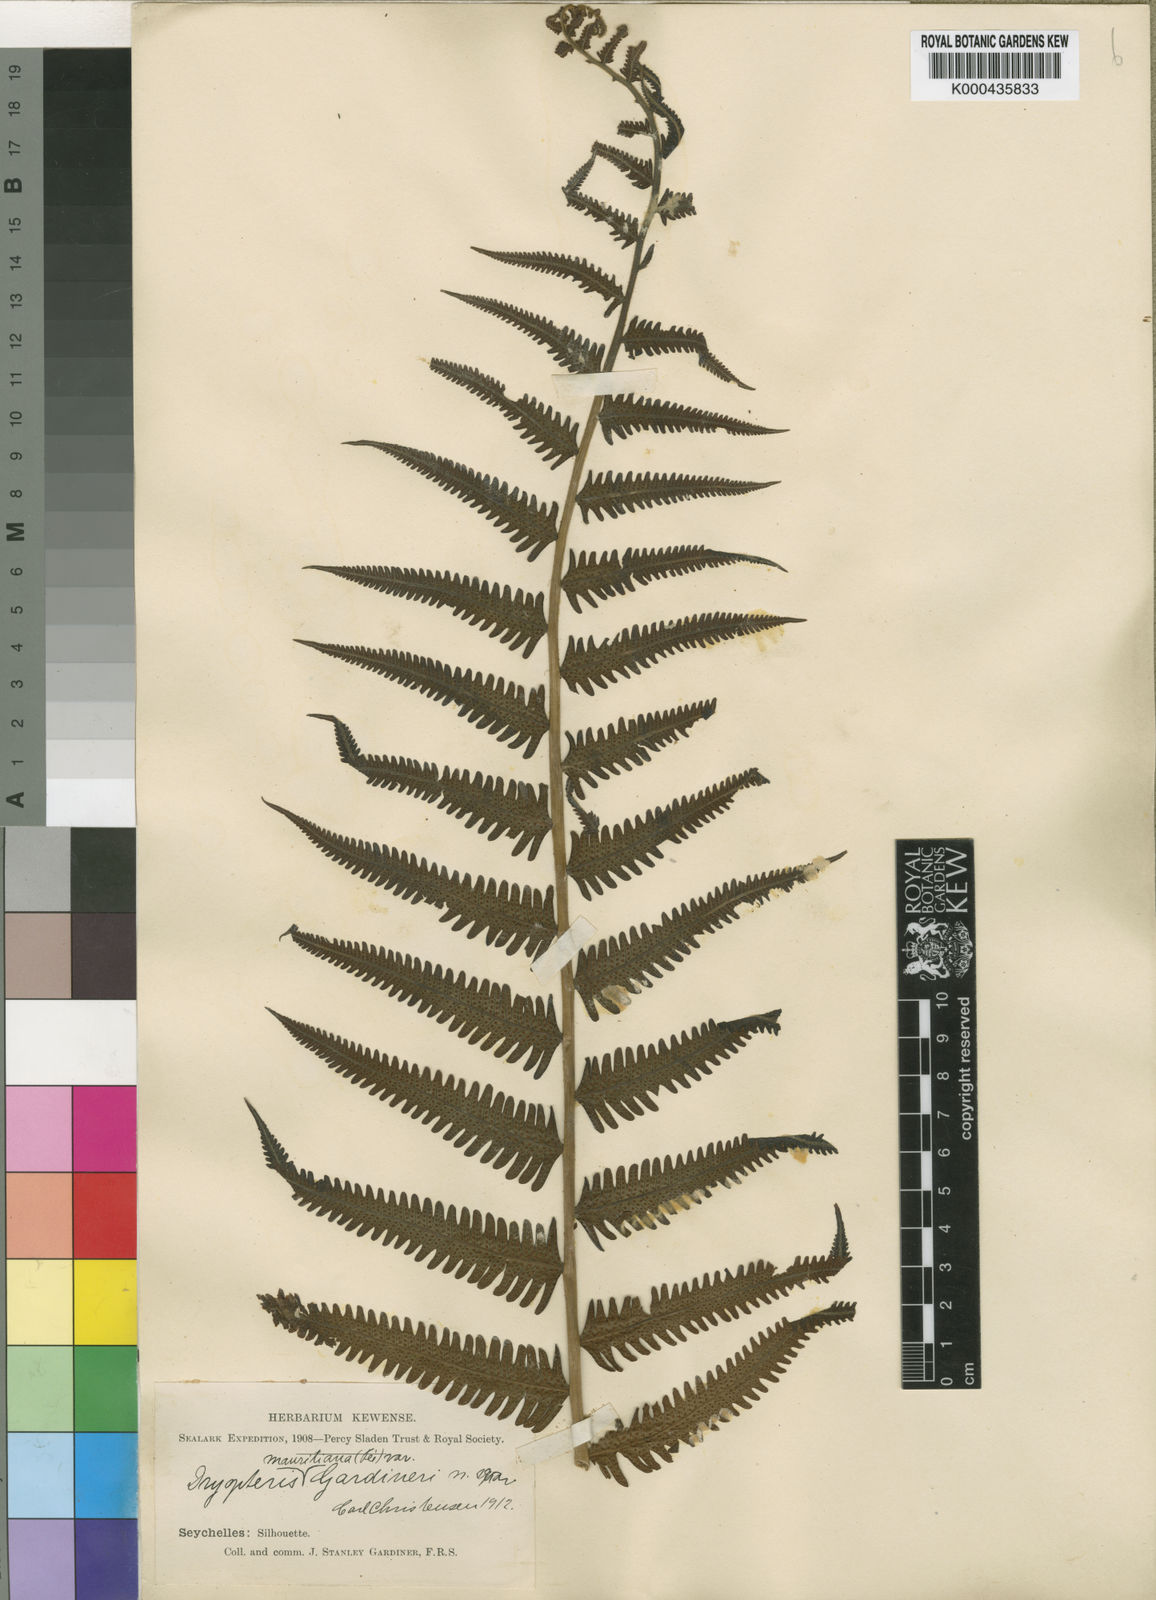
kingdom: Plantae
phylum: Tracheophyta
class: Polypodiopsida
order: Polypodiales
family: Thelypteridaceae
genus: Sphaerostephanos
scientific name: Sphaerostephanos subtruncatus
